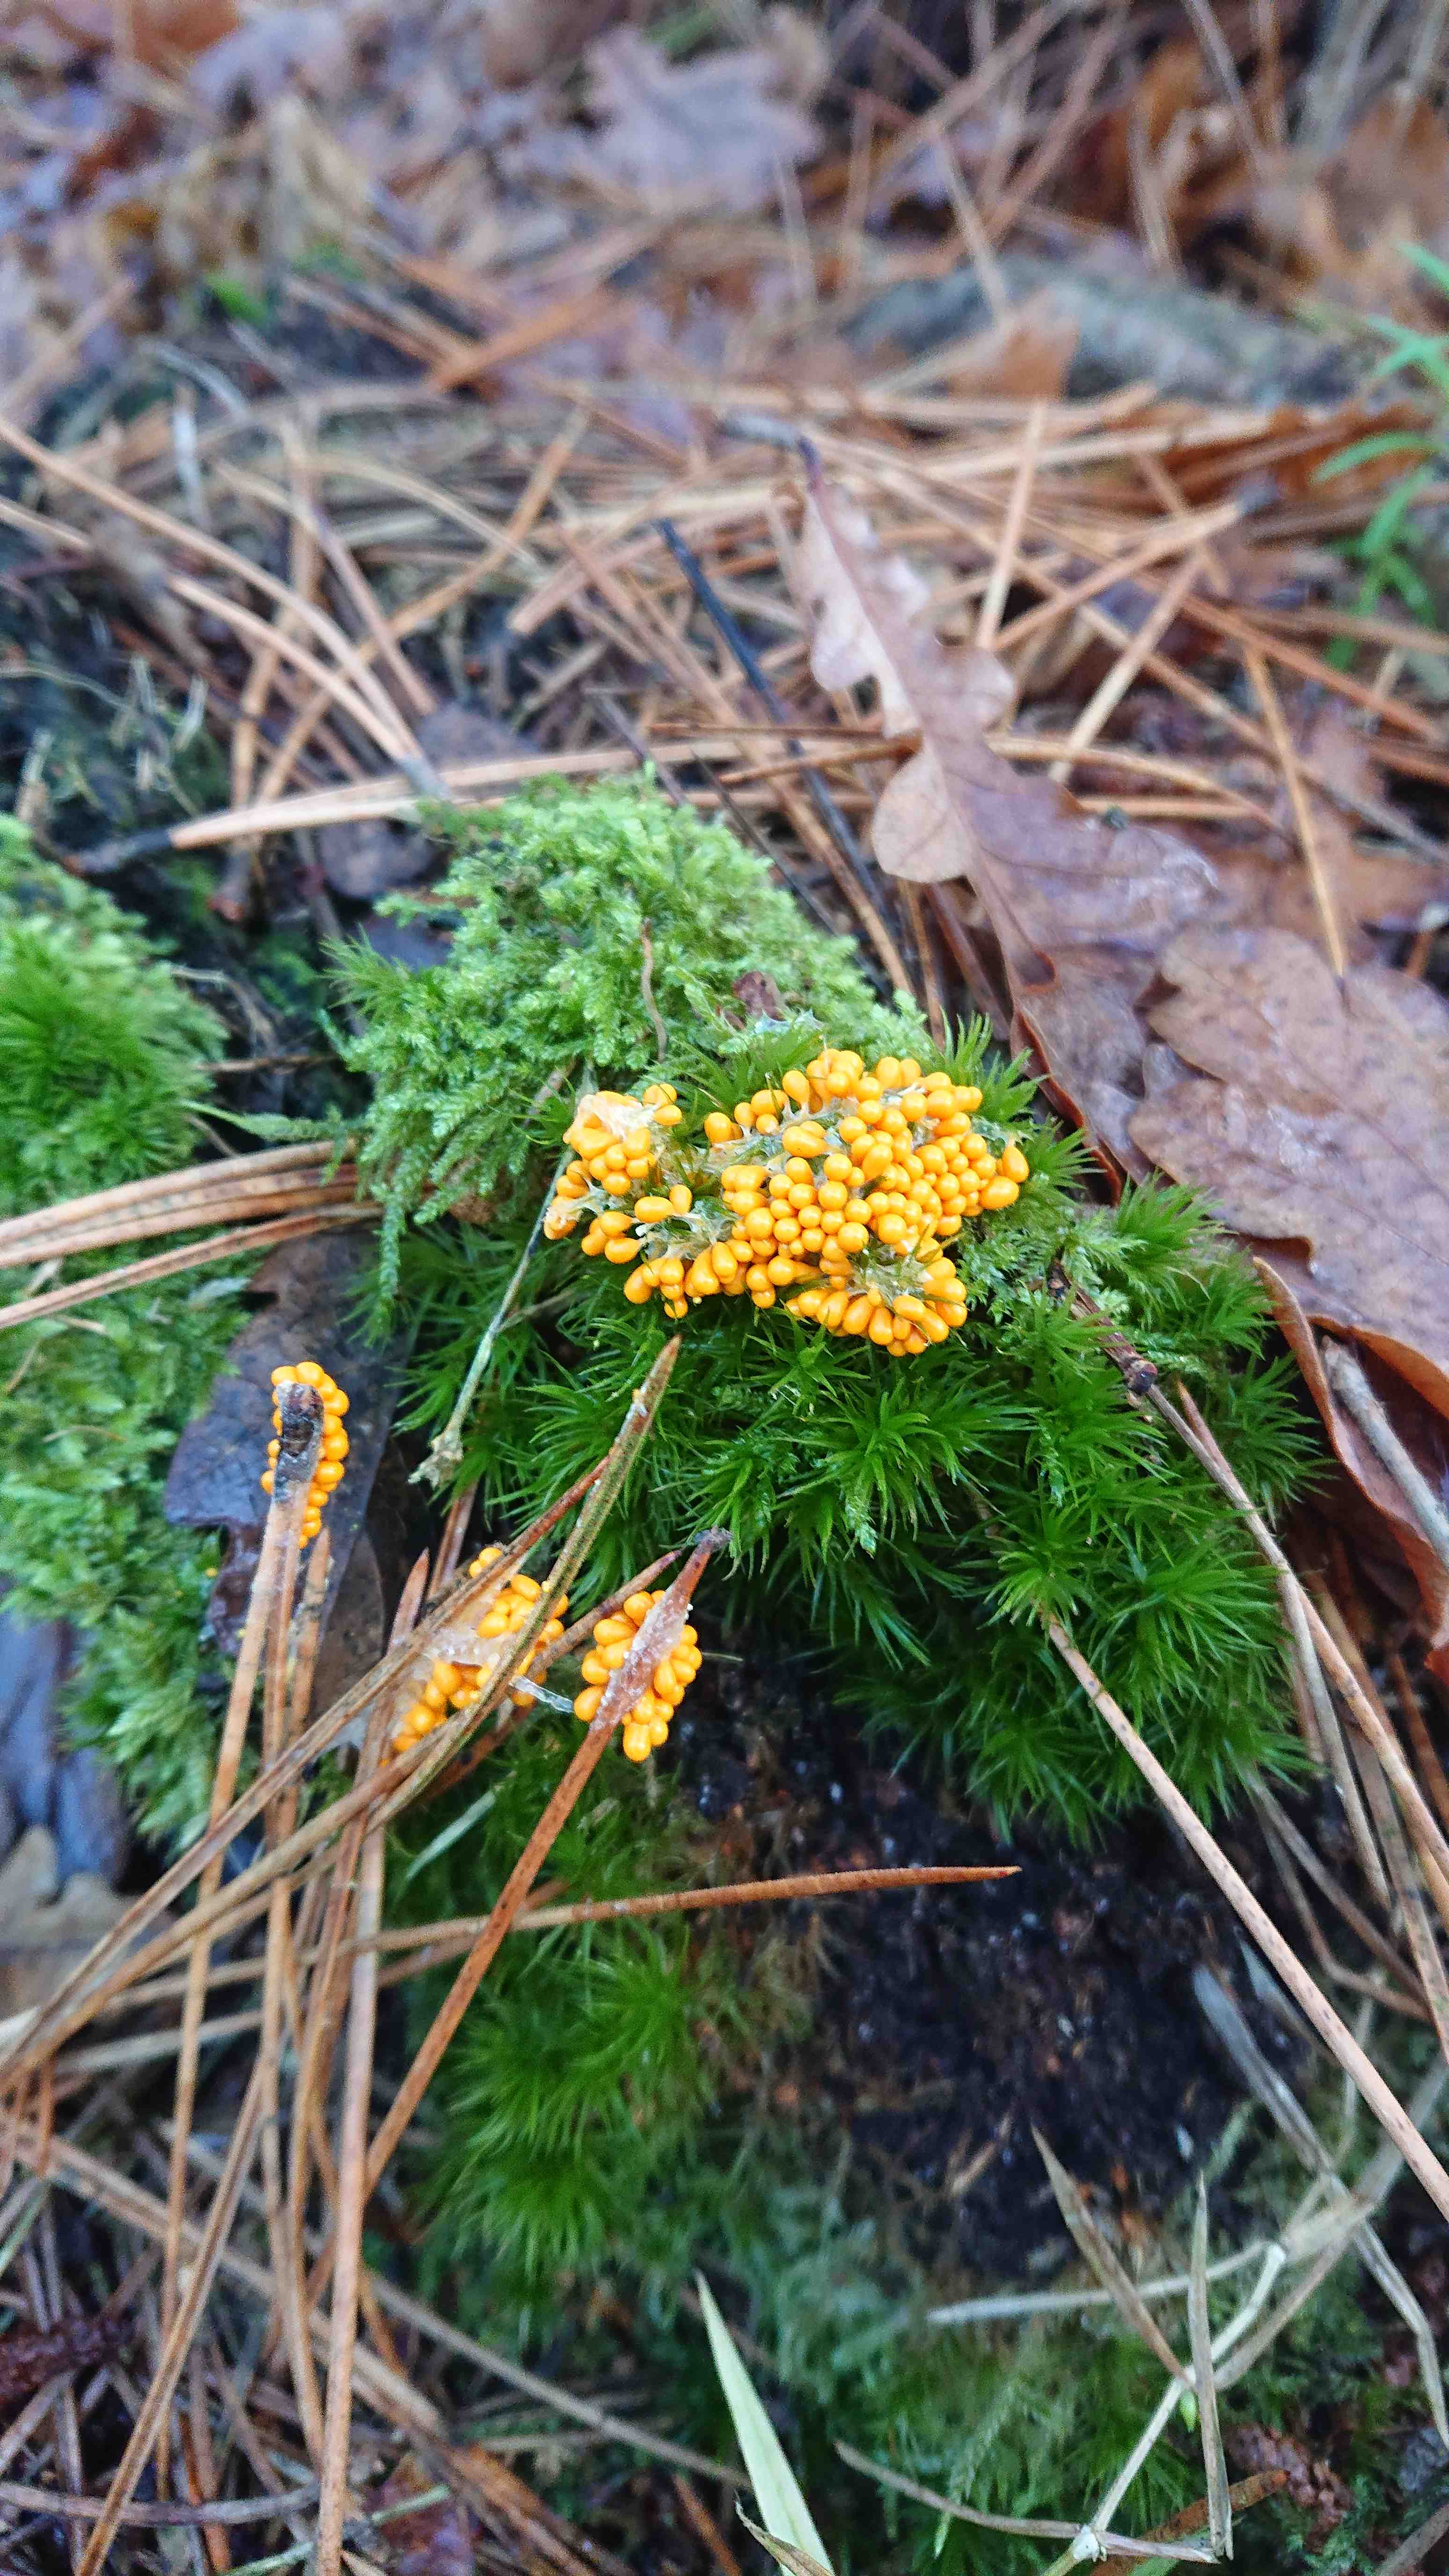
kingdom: Protozoa
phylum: Mycetozoa
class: Myxomycetes
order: Physarales
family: Physaraceae
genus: Leocarpus
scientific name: Leocarpus fragilis
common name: poleret glatfrø
